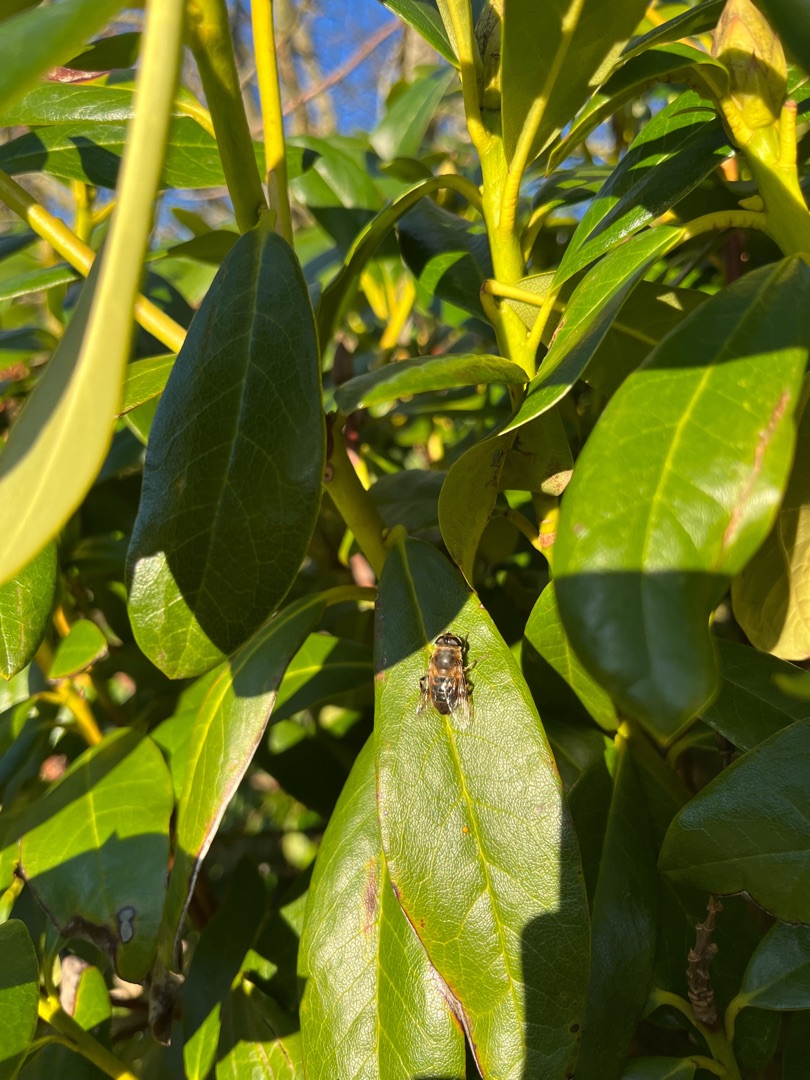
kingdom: Animalia
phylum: Arthropoda
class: Insecta
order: Diptera
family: Syrphidae
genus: Eristalis
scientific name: Eristalis tenax
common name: Droneflue
